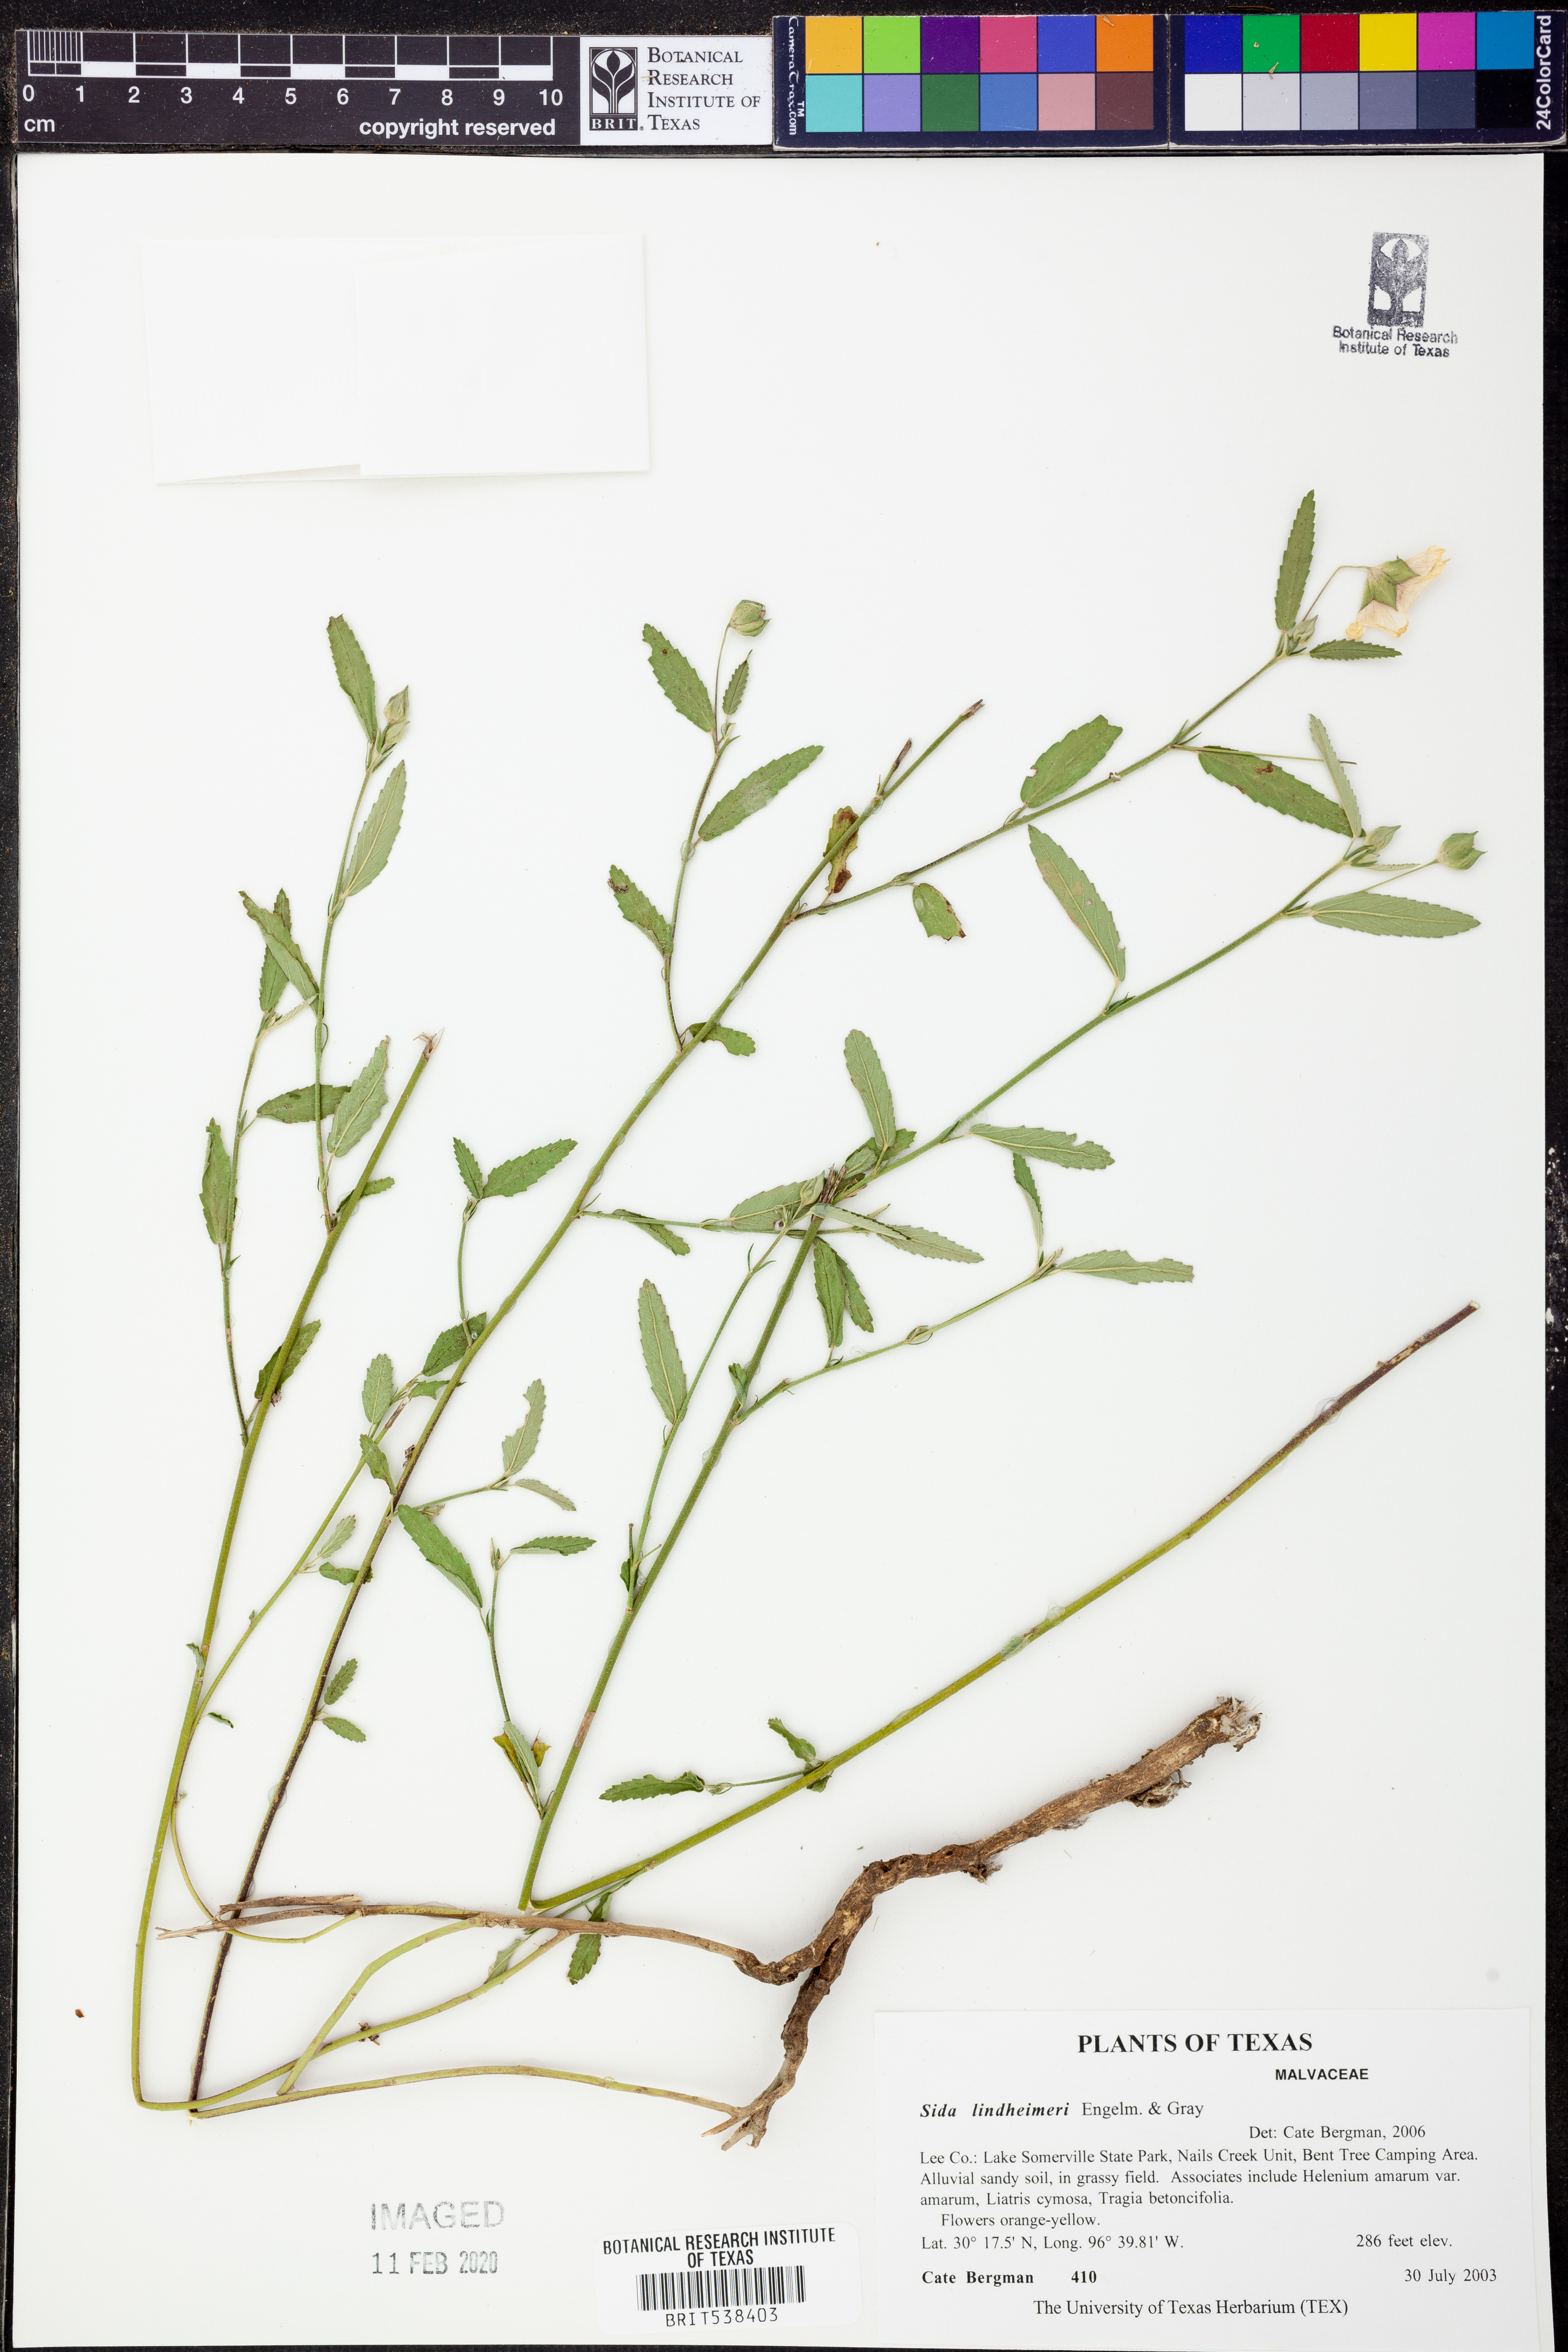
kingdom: Plantae
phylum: Tracheophyta
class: Magnoliopsida
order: Malvales
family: Malvaceae
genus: Sida
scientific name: Sida lindheimeri
